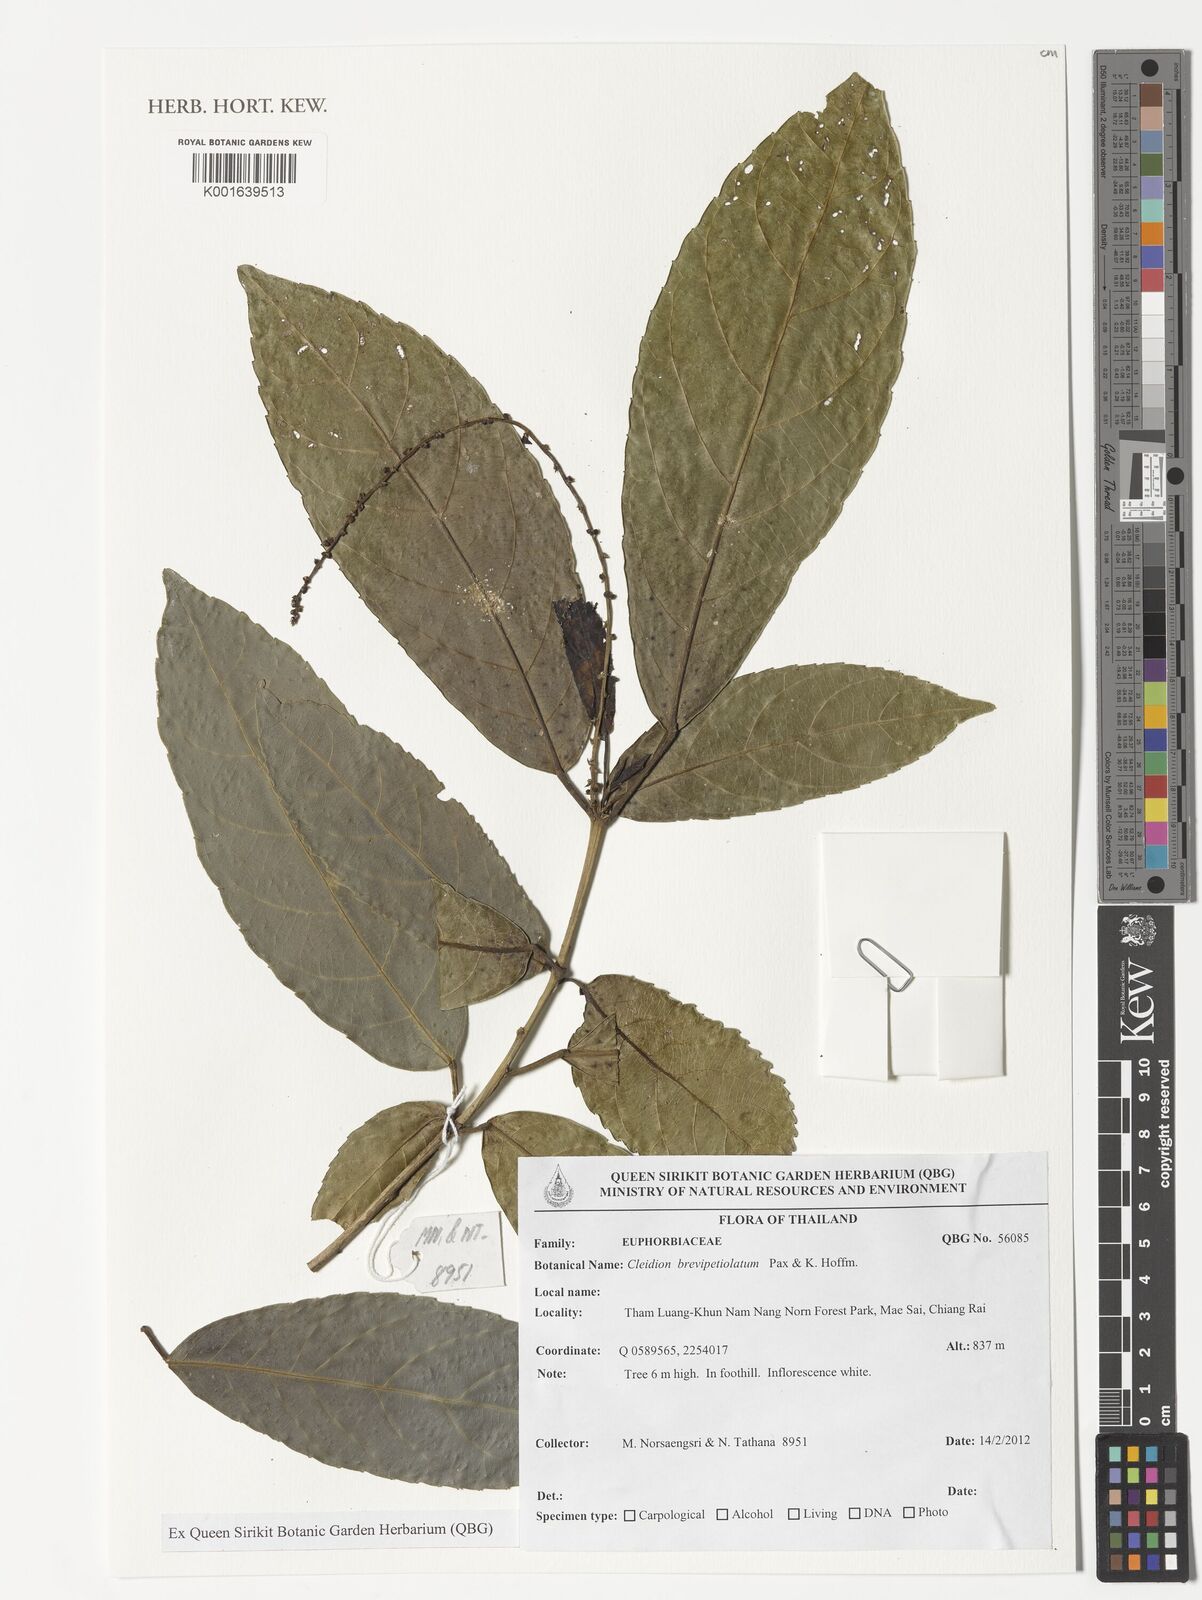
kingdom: Plantae
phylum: Tracheophyta
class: Magnoliopsida
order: Malpighiales
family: Euphorbiaceae
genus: Cleidion
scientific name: Cleidion brevipetiolatum
